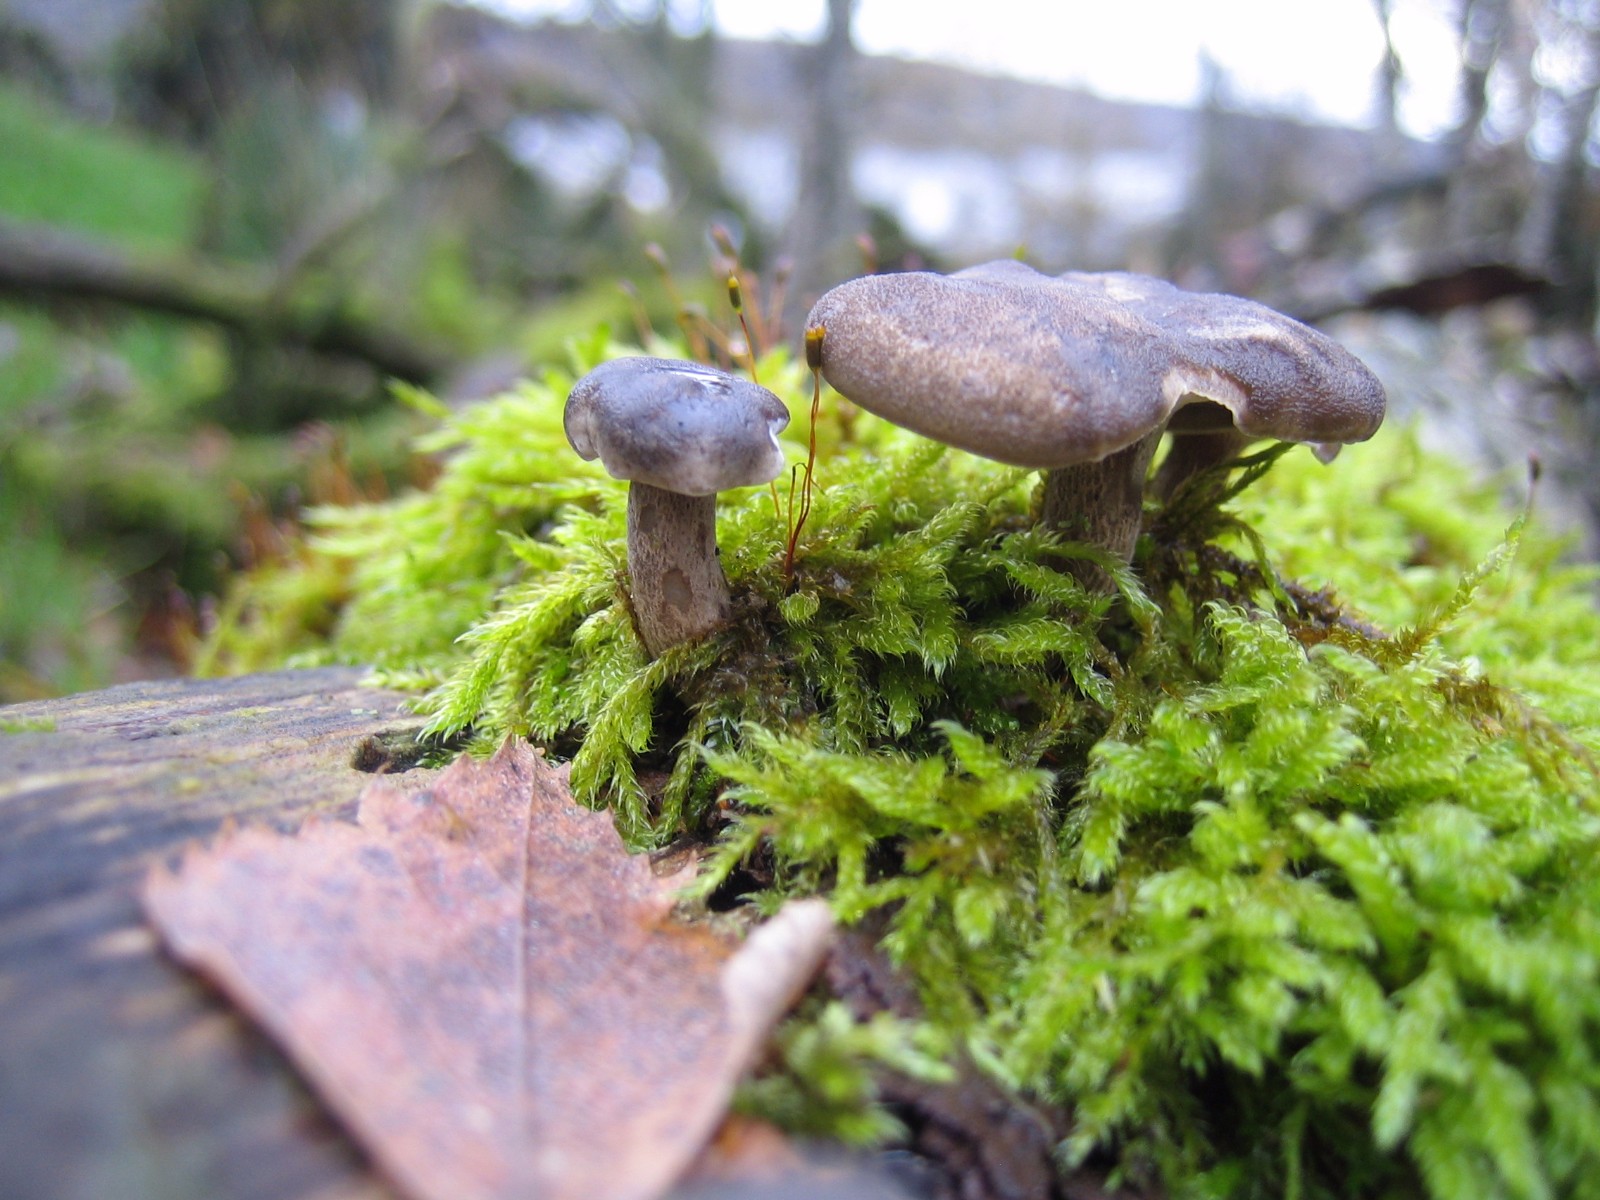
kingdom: Fungi
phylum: Basidiomycota
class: Agaricomycetes
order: Polyporales
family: Polyporaceae
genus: Lentinus
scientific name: Lentinus brumalis
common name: vinter-stilkporesvamp
